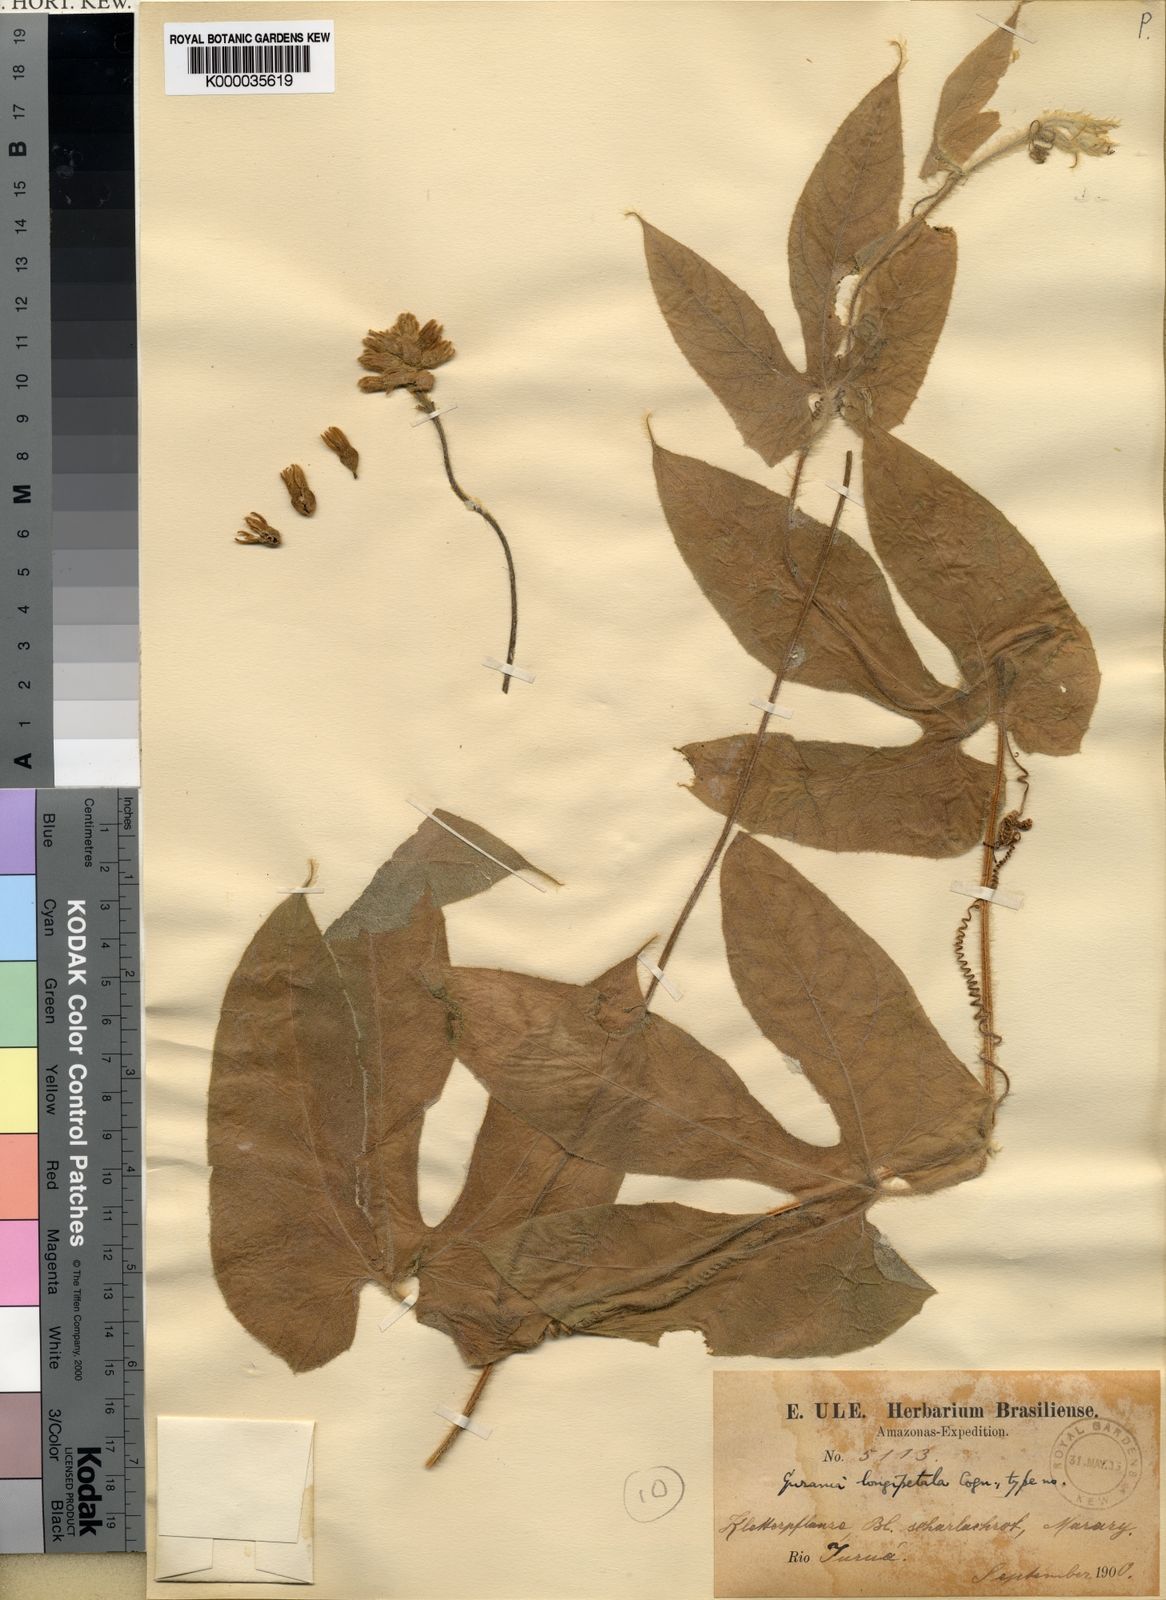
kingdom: Plantae
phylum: Tracheophyta
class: Magnoliopsida
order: Cucurbitales
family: Cucurbitaceae
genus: Gurania
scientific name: Gurania eriantha
